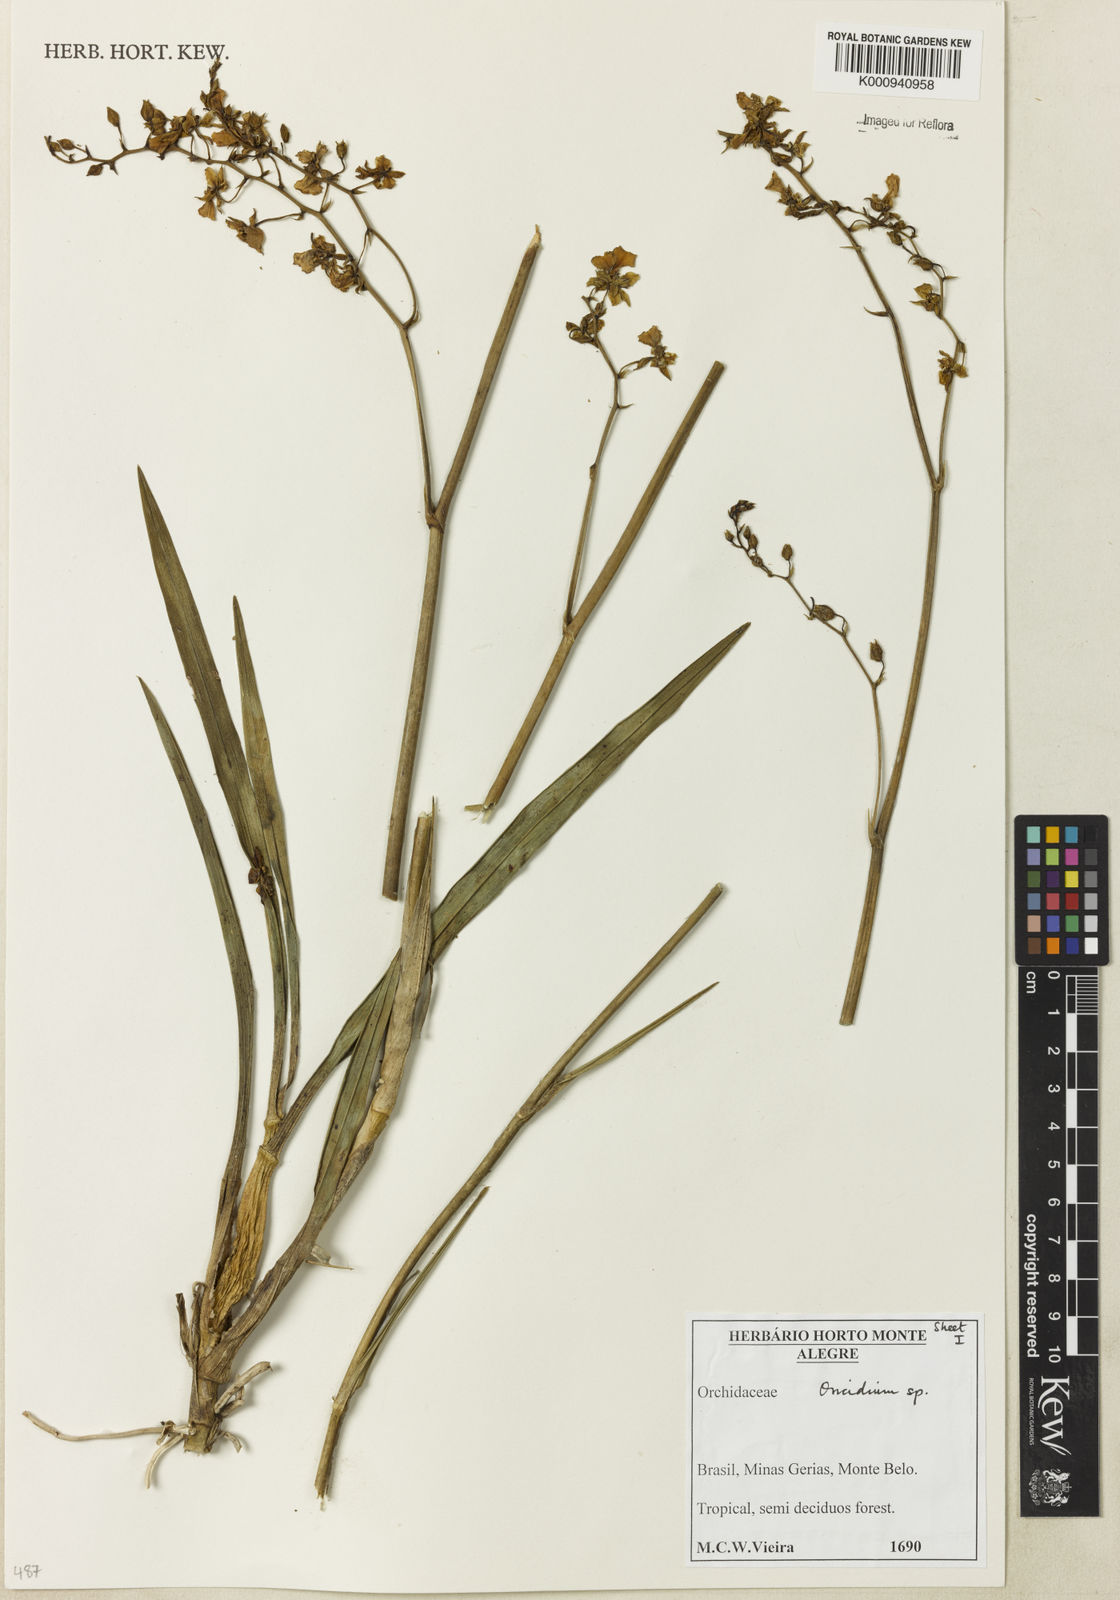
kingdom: Plantae
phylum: Tracheophyta
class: Liliopsida
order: Asparagales
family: Orchidaceae
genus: Oncidium
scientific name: Oncidium
